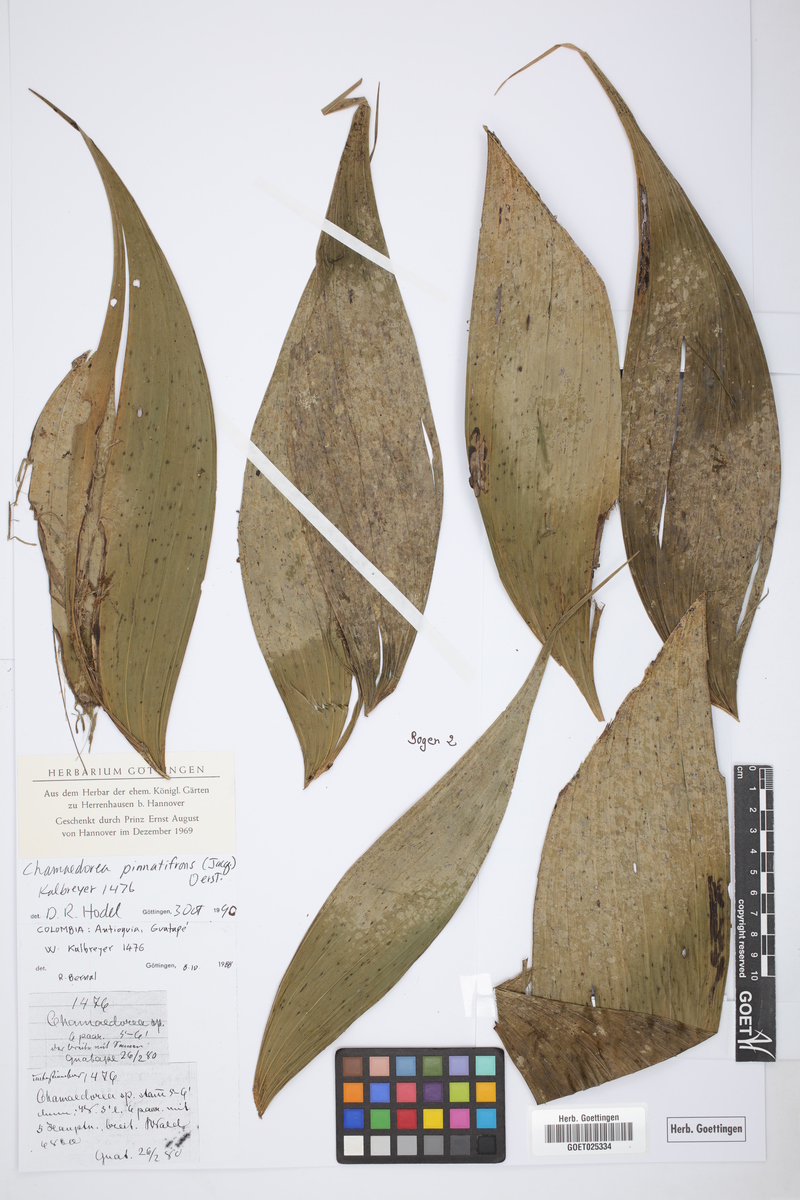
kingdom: Plantae
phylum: Tracheophyta
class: Liliopsida
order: Arecales
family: Arecaceae
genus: Chamaedorea
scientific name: Chamaedorea pinnatifrons
